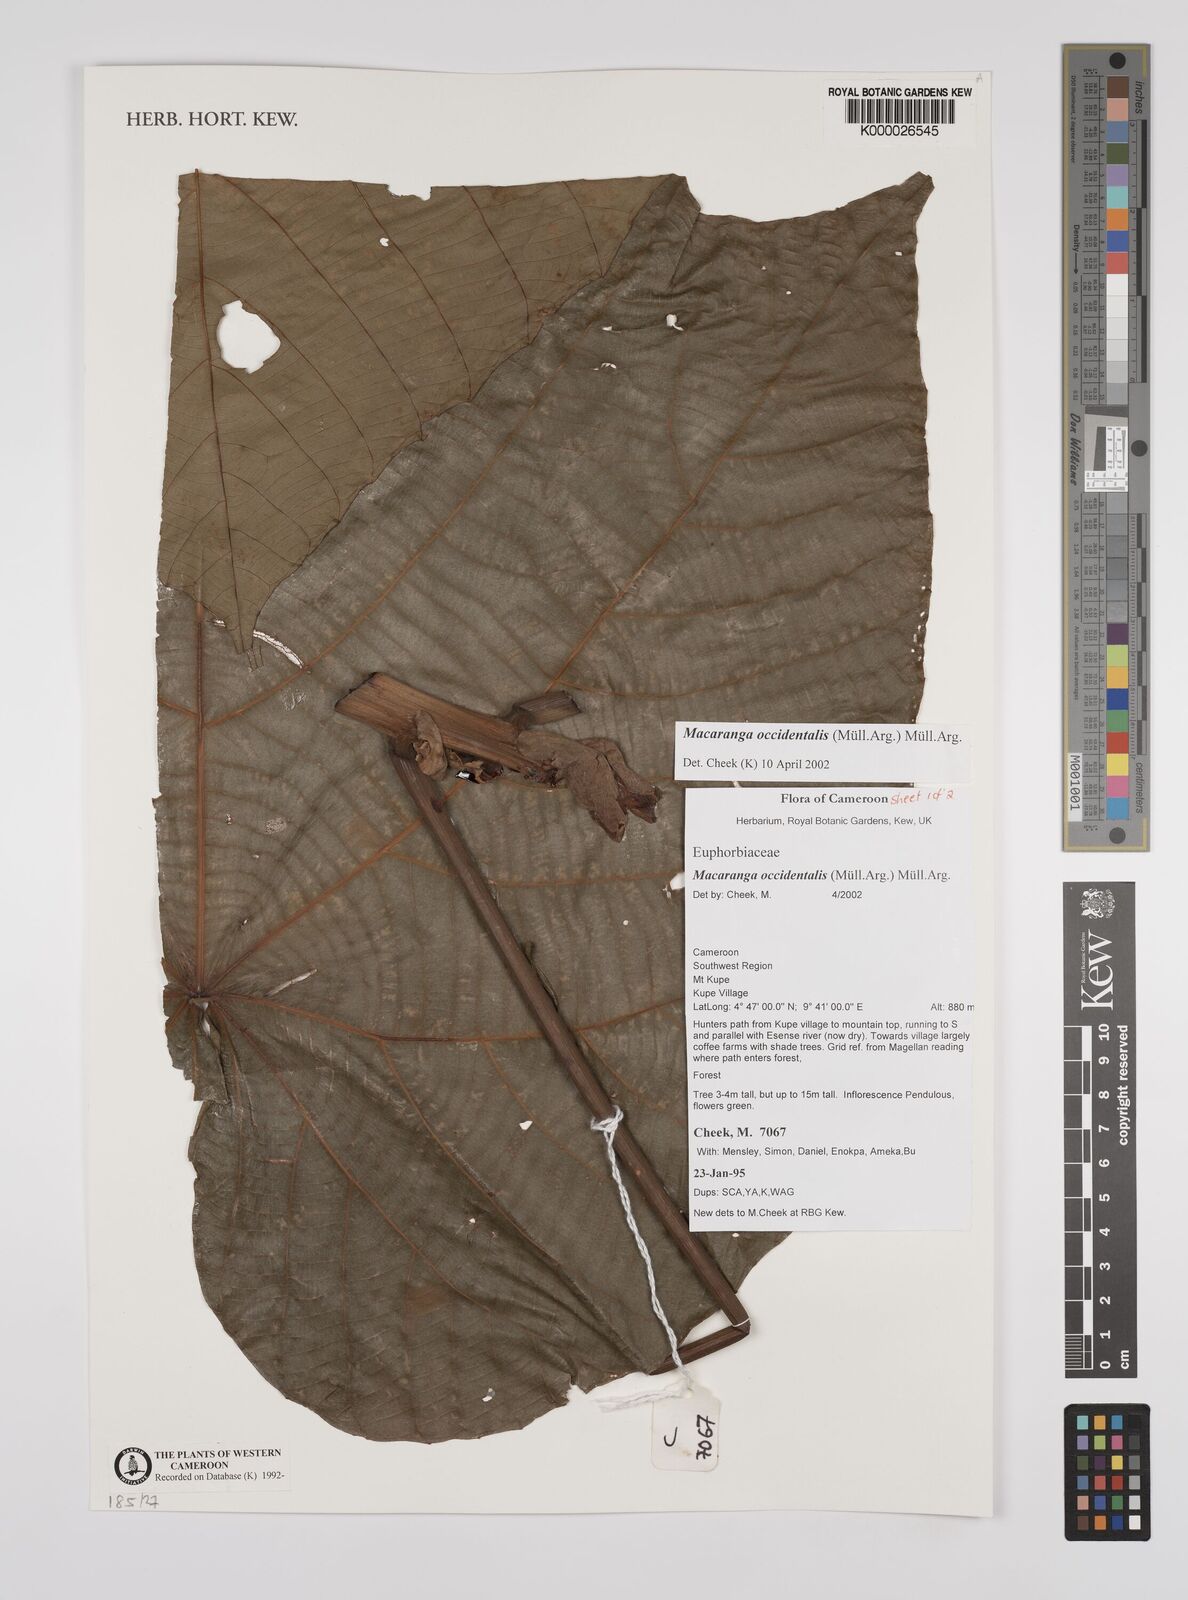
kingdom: Plantae
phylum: Tracheophyta
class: Magnoliopsida
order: Malpighiales
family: Euphorbiaceae
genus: Macaranga
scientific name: Macaranga
